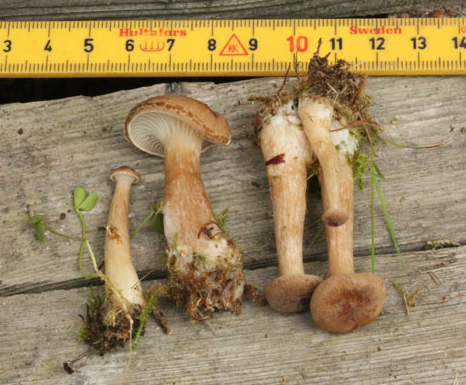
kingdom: Fungi
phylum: Basidiomycota
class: Agaricomycetes
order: Agaricales
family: Tricholomataceae
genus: Clitocybe
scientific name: Clitocybe costata
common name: brunstokket tragthat
